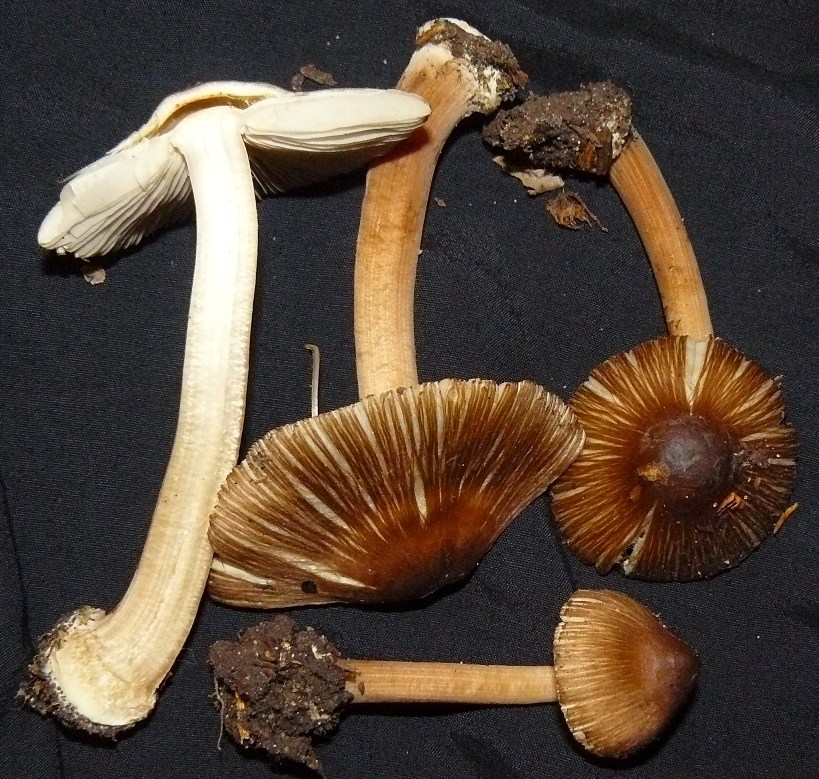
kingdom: Fungi
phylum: Basidiomycota
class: Agaricomycetes
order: Agaricales
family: Inocybaceae
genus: Inocybe
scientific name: Inocybe asterospora
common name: stjernesporet trævlhat
